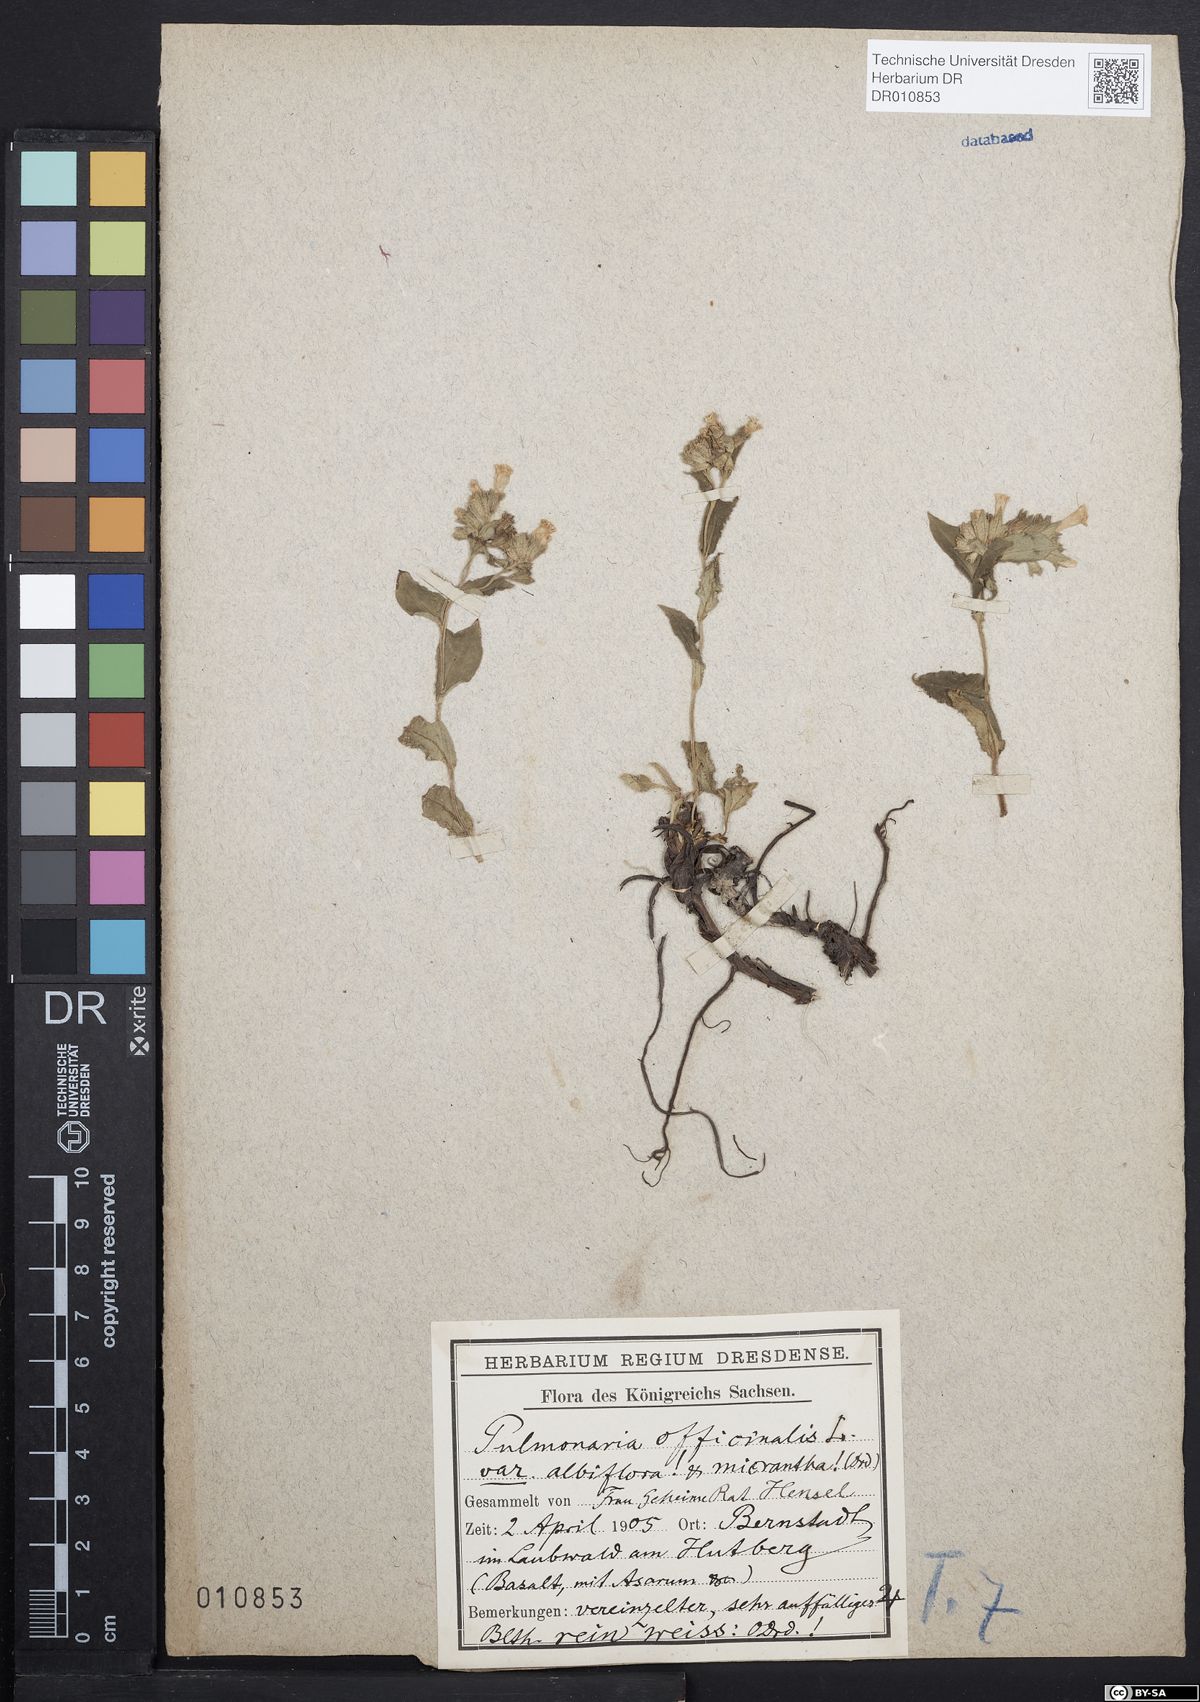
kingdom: Plantae
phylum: Tracheophyta
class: Magnoliopsida
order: Boraginales
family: Boraginaceae
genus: Pulmonaria
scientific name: Pulmonaria obscura
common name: Suffolk lungwort
